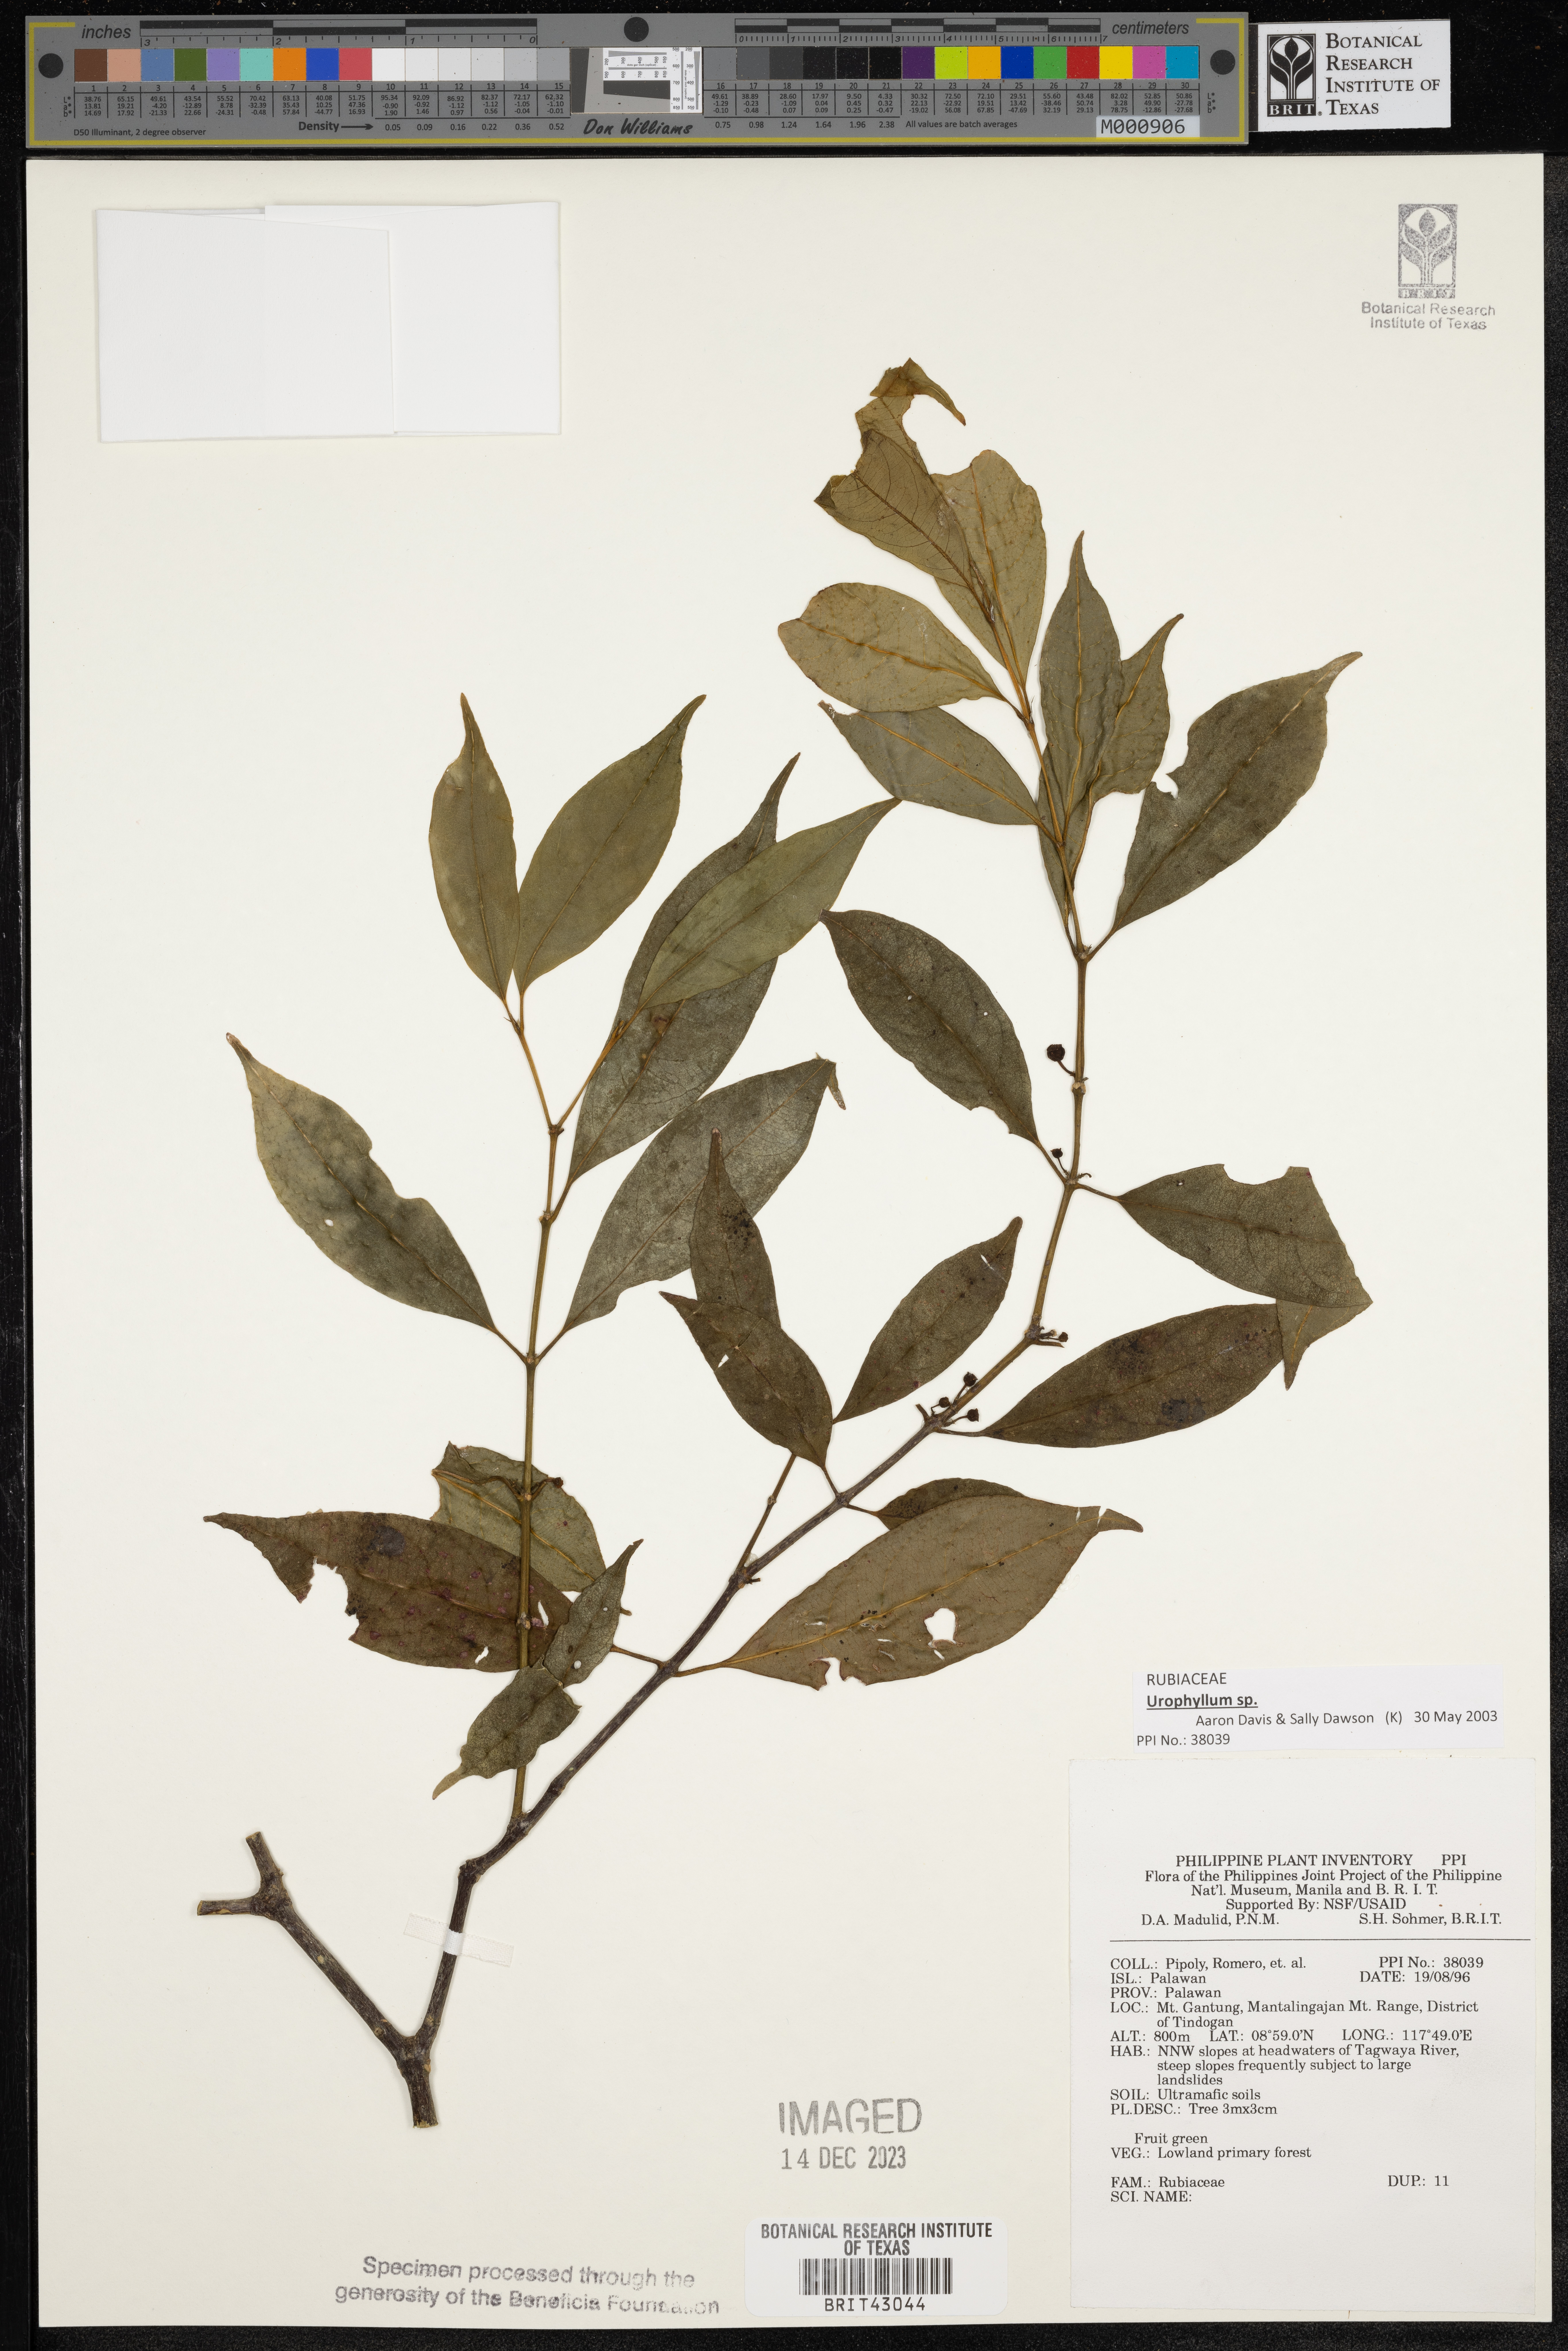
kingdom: Plantae
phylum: Tracheophyta
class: Magnoliopsida
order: Gentianales
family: Rubiaceae
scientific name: Rubiaceae
